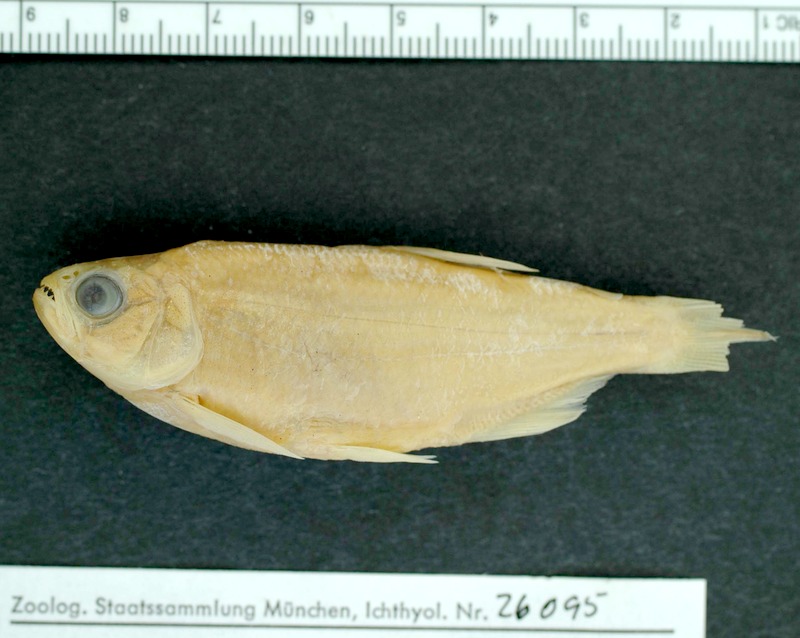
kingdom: Animalia
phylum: Chordata
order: Characiformes
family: Characidae
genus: Oligosarcus
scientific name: Oligosarcus schindleri
